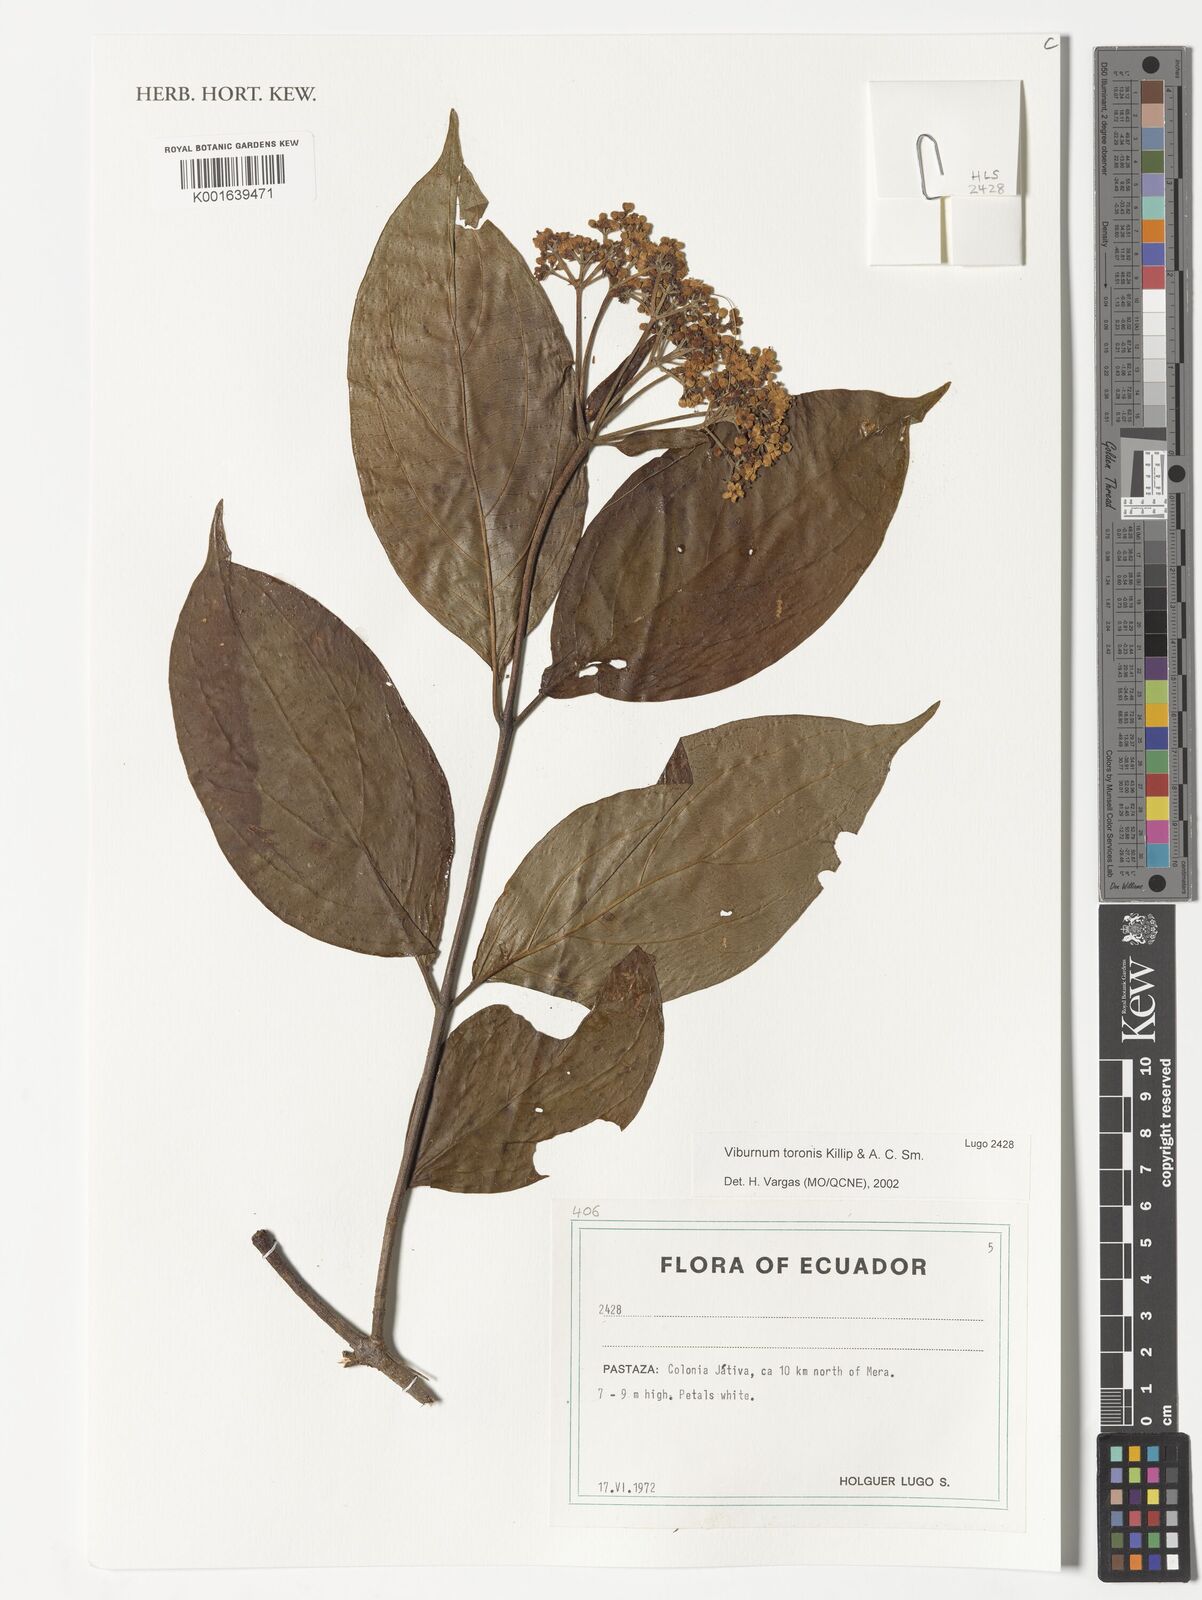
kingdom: Plantae
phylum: Tracheophyta
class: Magnoliopsida
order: Dipsacales
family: Viburnaceae
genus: Viburnum
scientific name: Viburnum toronis
